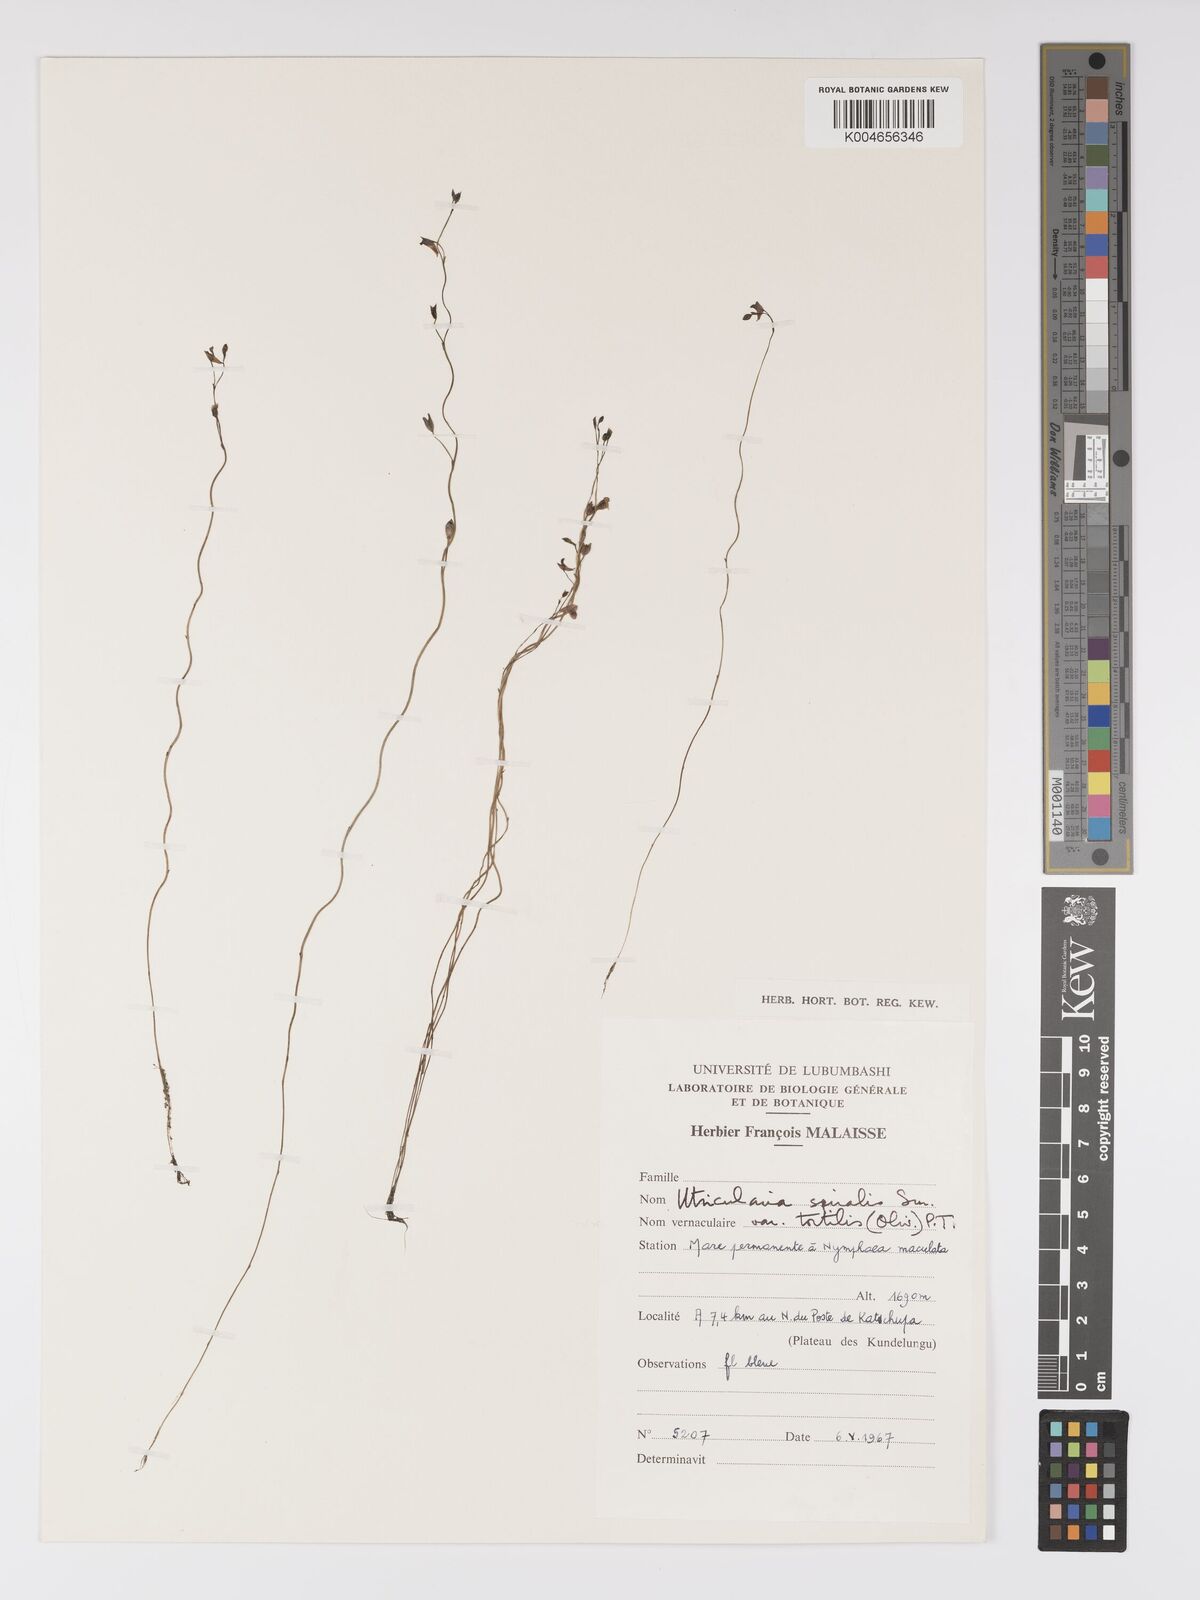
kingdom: Plantae
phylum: Tracheophyta
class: Magnoliopsida
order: Lamiales
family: Lentibulariaceae
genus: Utricularia
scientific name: Utricularia
